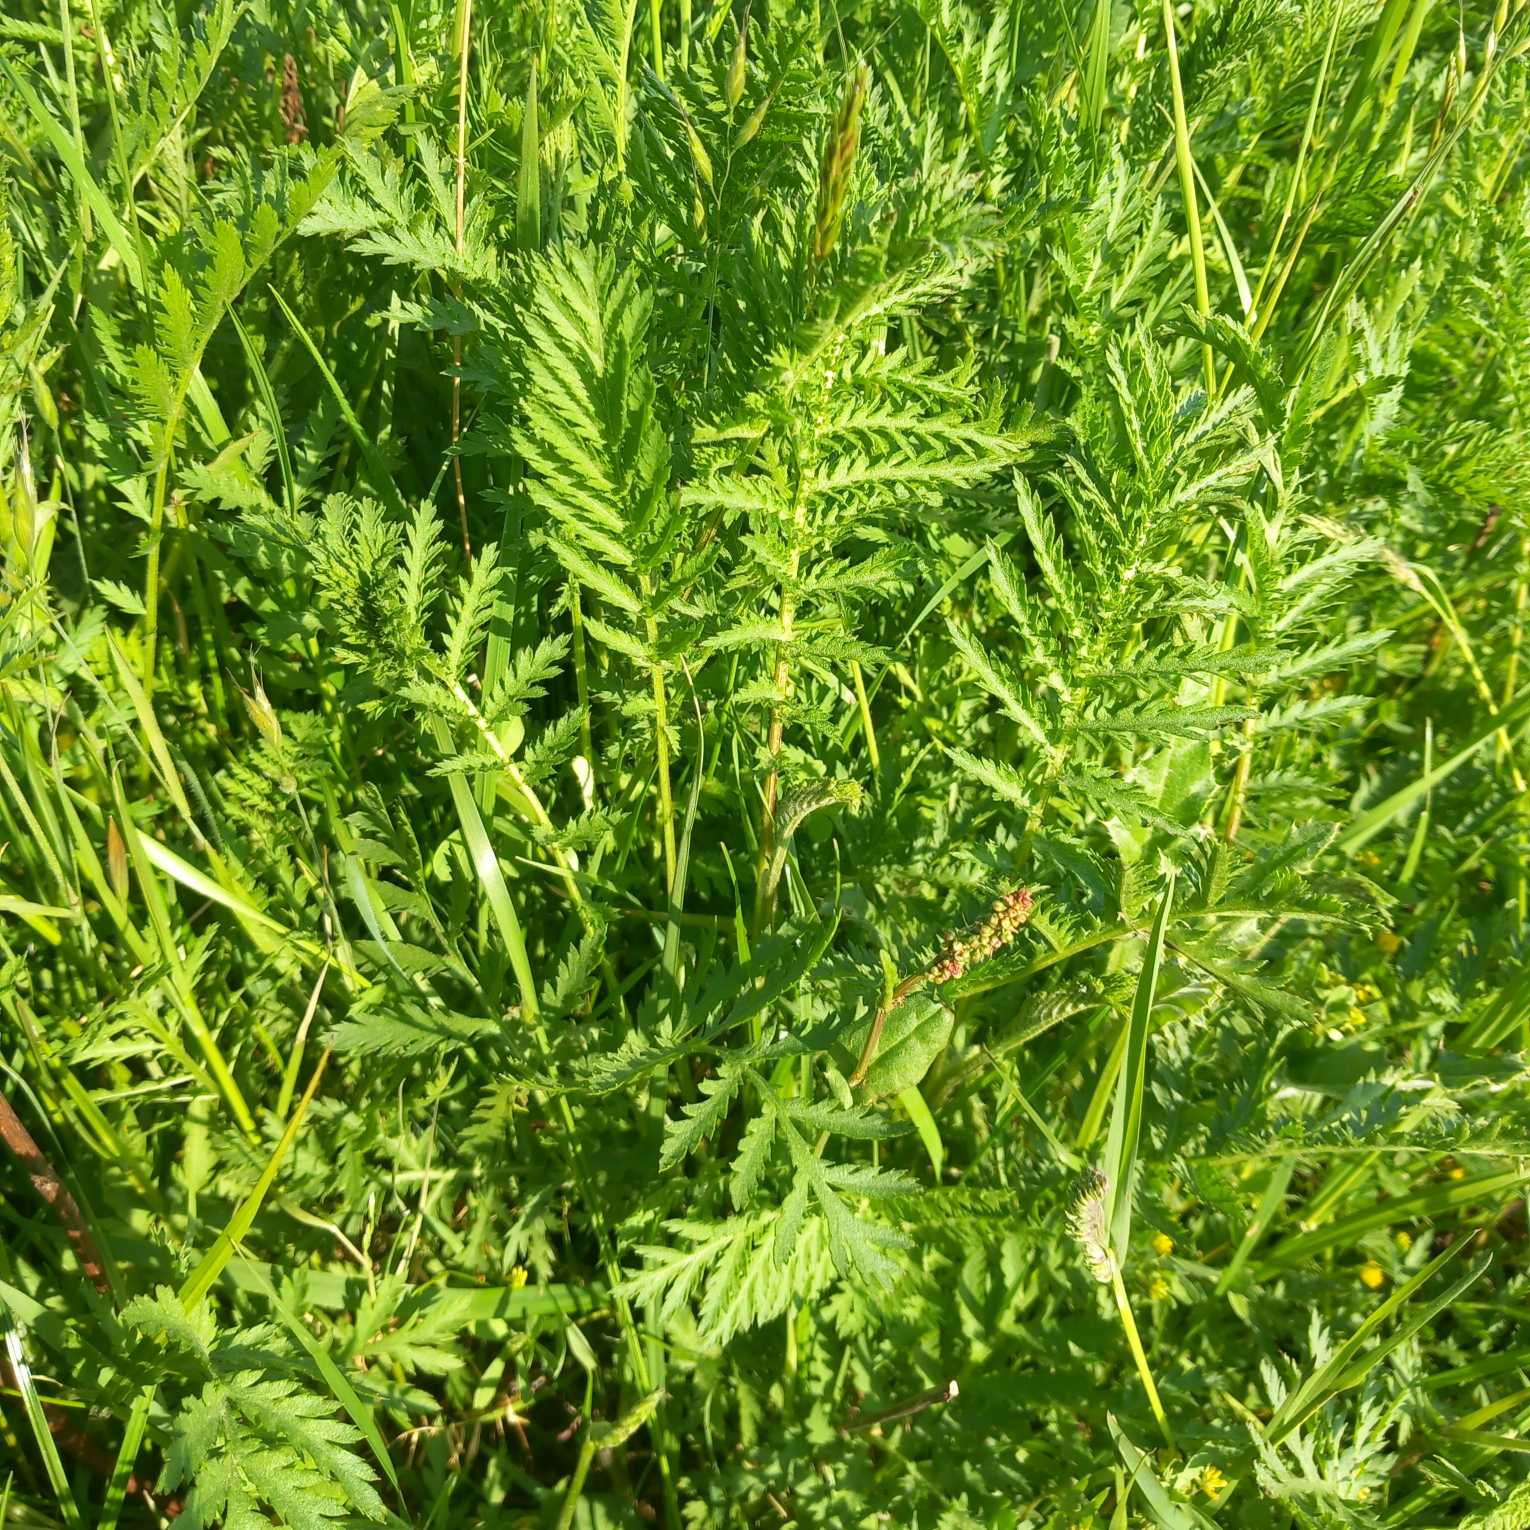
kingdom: Plantae
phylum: Tracheophyta
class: Magnoliopsida
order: Asterales
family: Asteraceae
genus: Tanacetum
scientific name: Tanacetum vulgare
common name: Rejnfan
